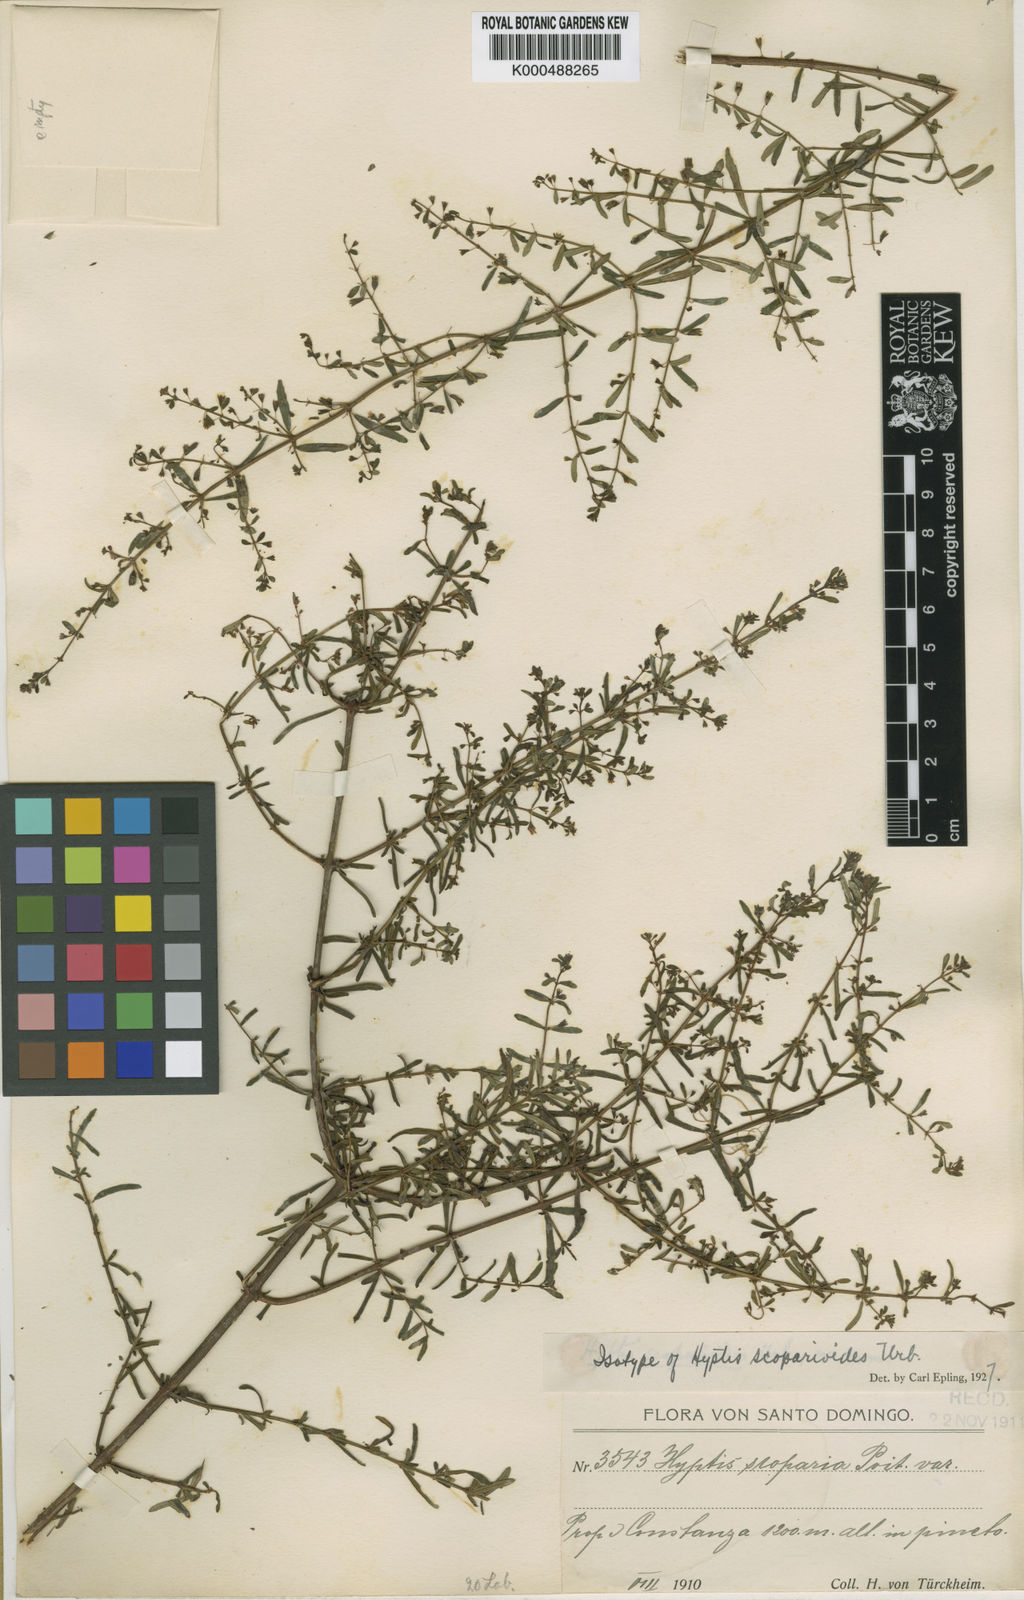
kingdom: Plantae
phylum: Tracheophyta
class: Magnoliopsida
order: Lamiales
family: Lamiaceae
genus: Condea
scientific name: Condea scoparioides
